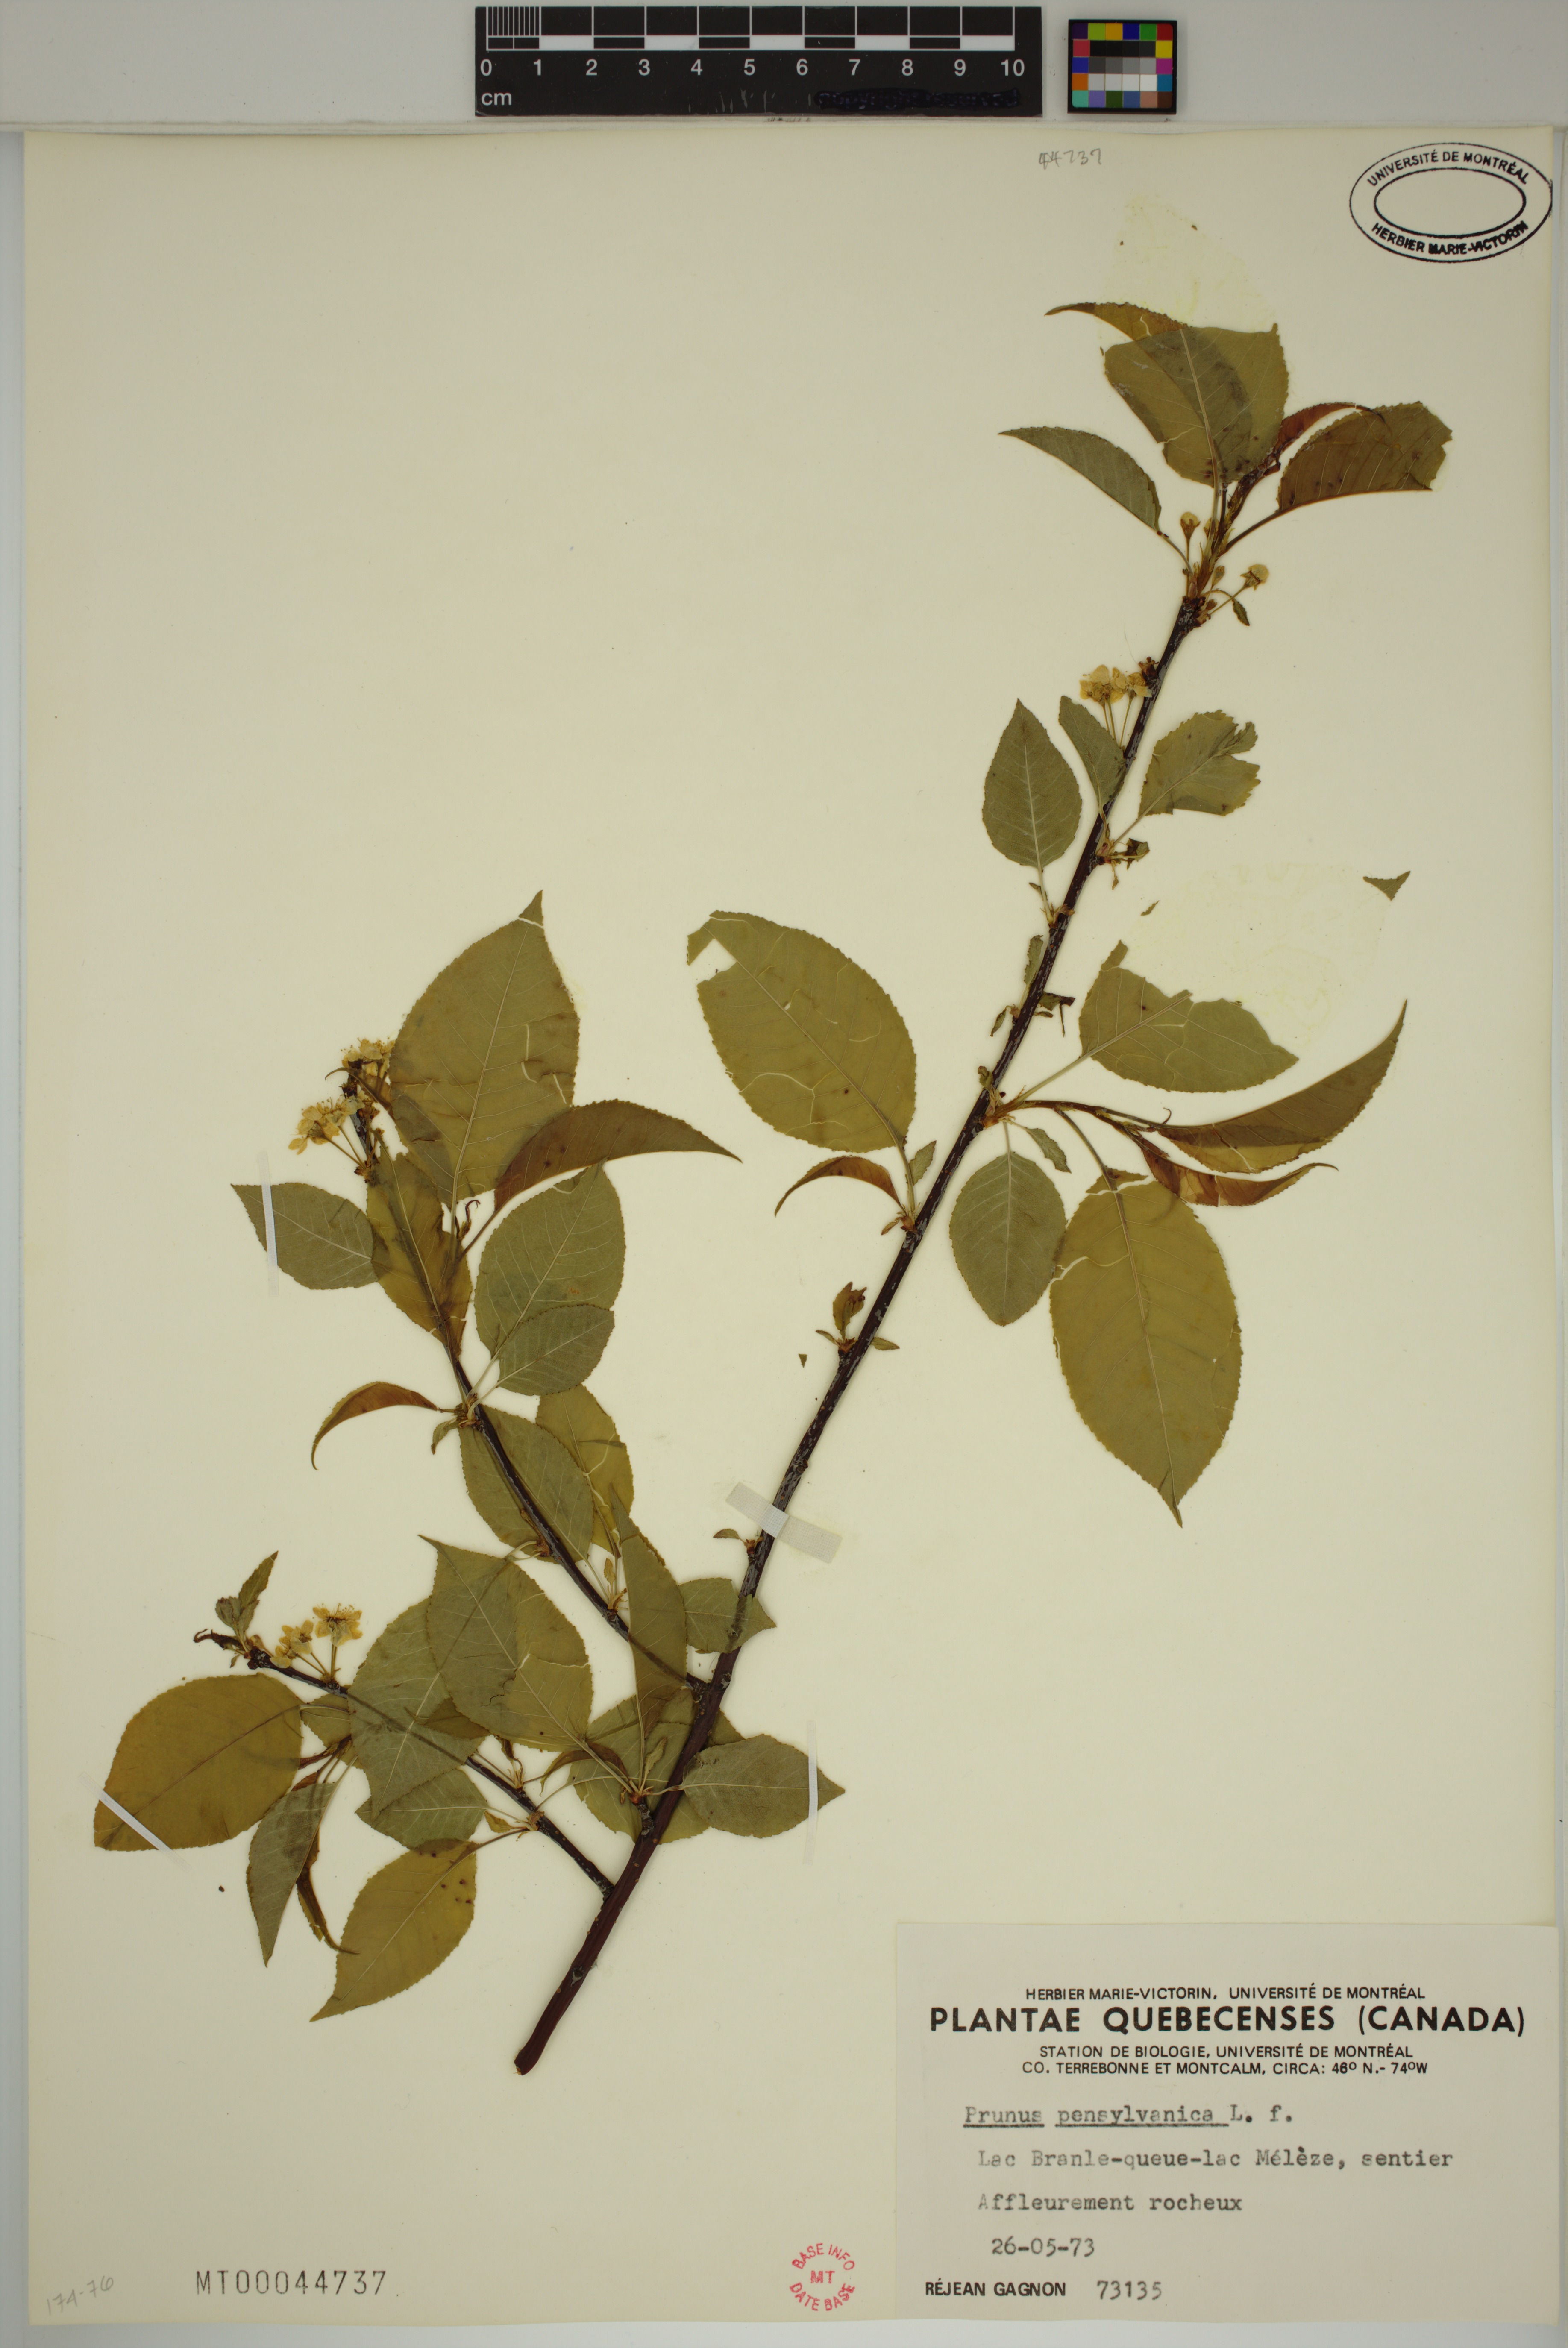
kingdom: Plantae
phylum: Tracheophyta
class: Magnoliopsida
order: Rosales
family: Rosaceae
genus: Prunus
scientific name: Prunus pensylvanica
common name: Pin cherry
